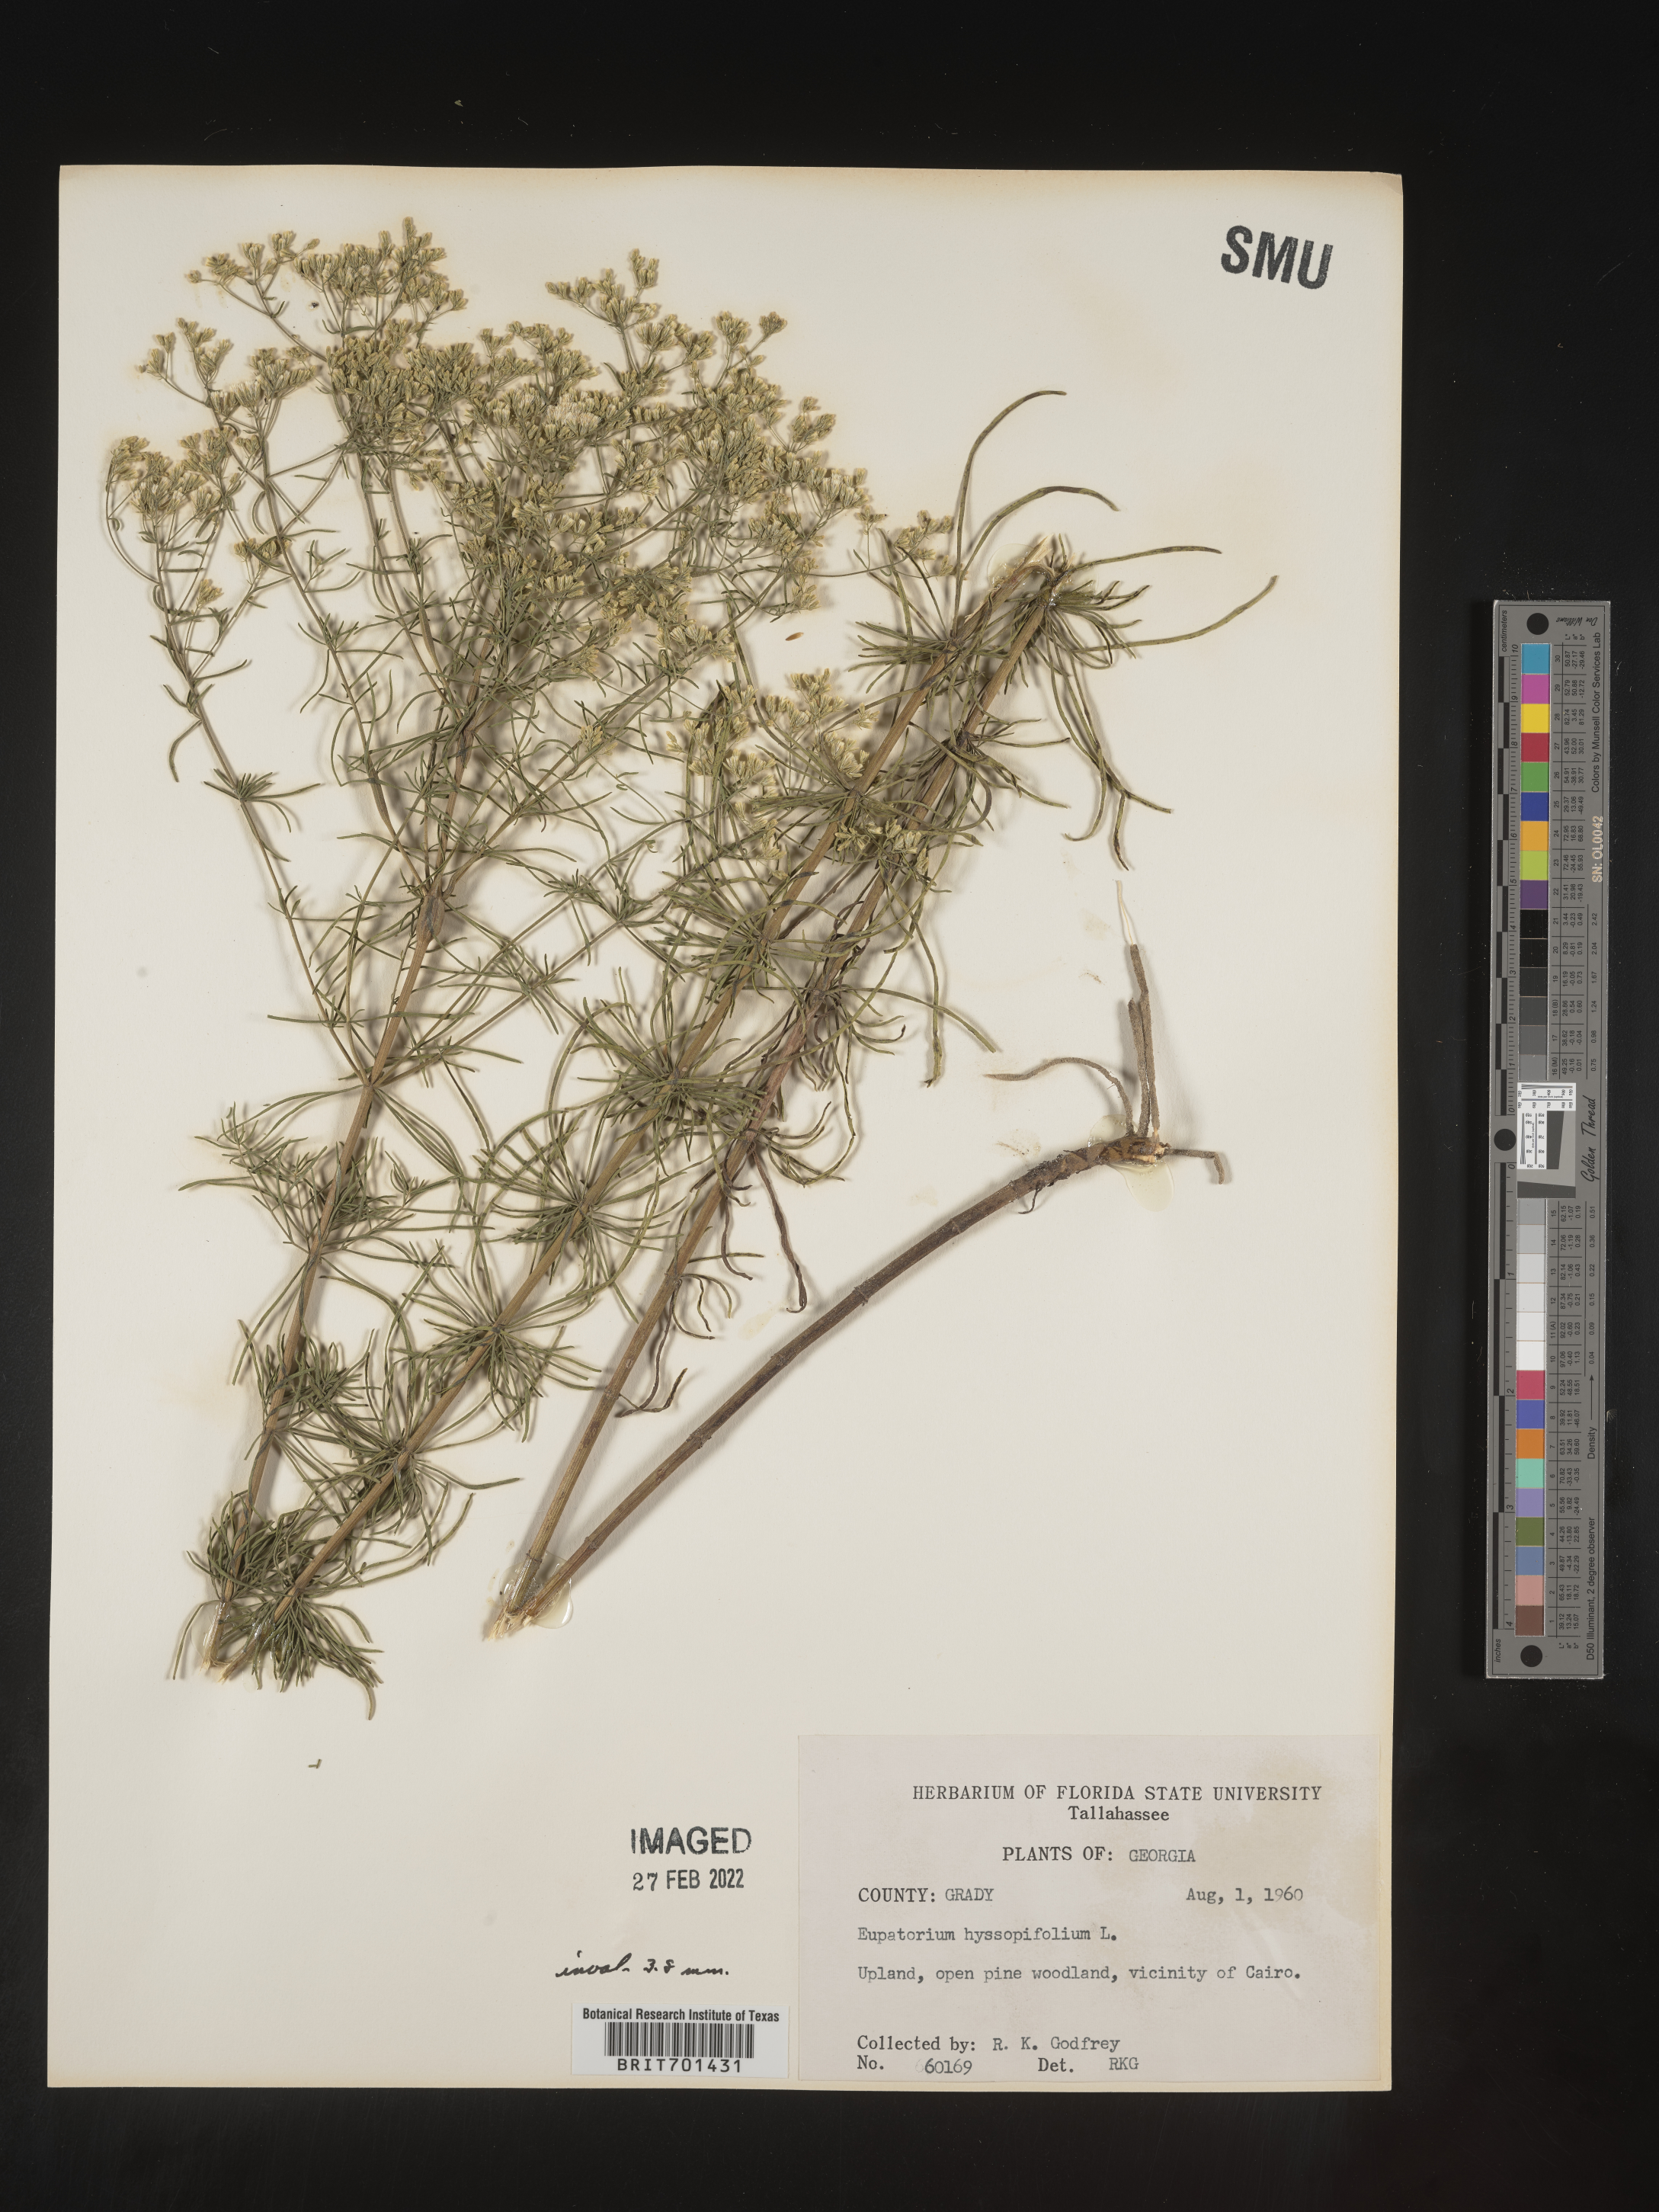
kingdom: Plantae
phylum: Tracheophyta
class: Magnoliopsida
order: Asterales
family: Asteraceae
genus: Eupatorium
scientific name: Eupatorium hyssopifolium
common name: Hyssop-leaf thoroughwort
